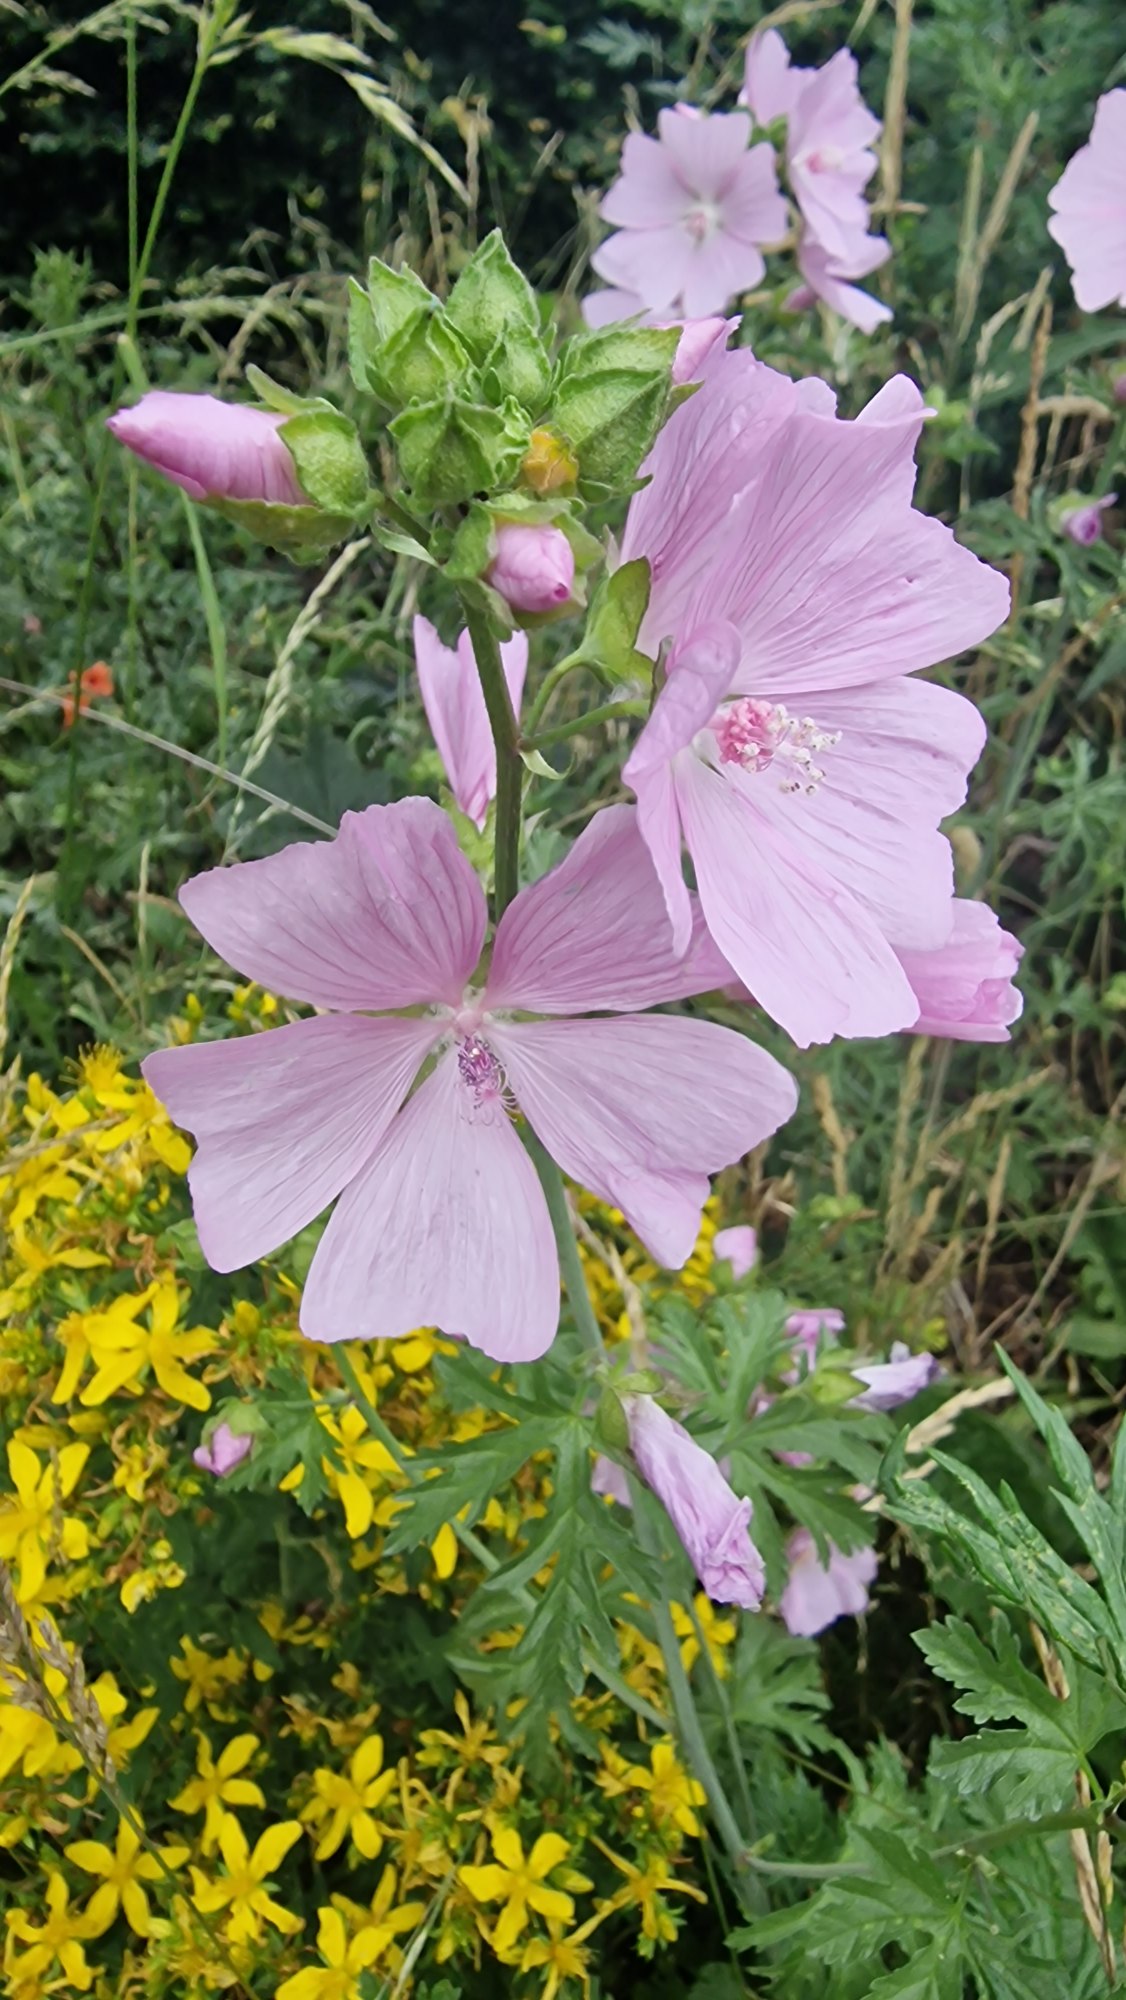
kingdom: Plantae
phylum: Tracheophyta
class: Magnoliopsida
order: Malvales
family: Malvaceae
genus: Malva
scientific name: Malva alcea
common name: Rosen-katost
